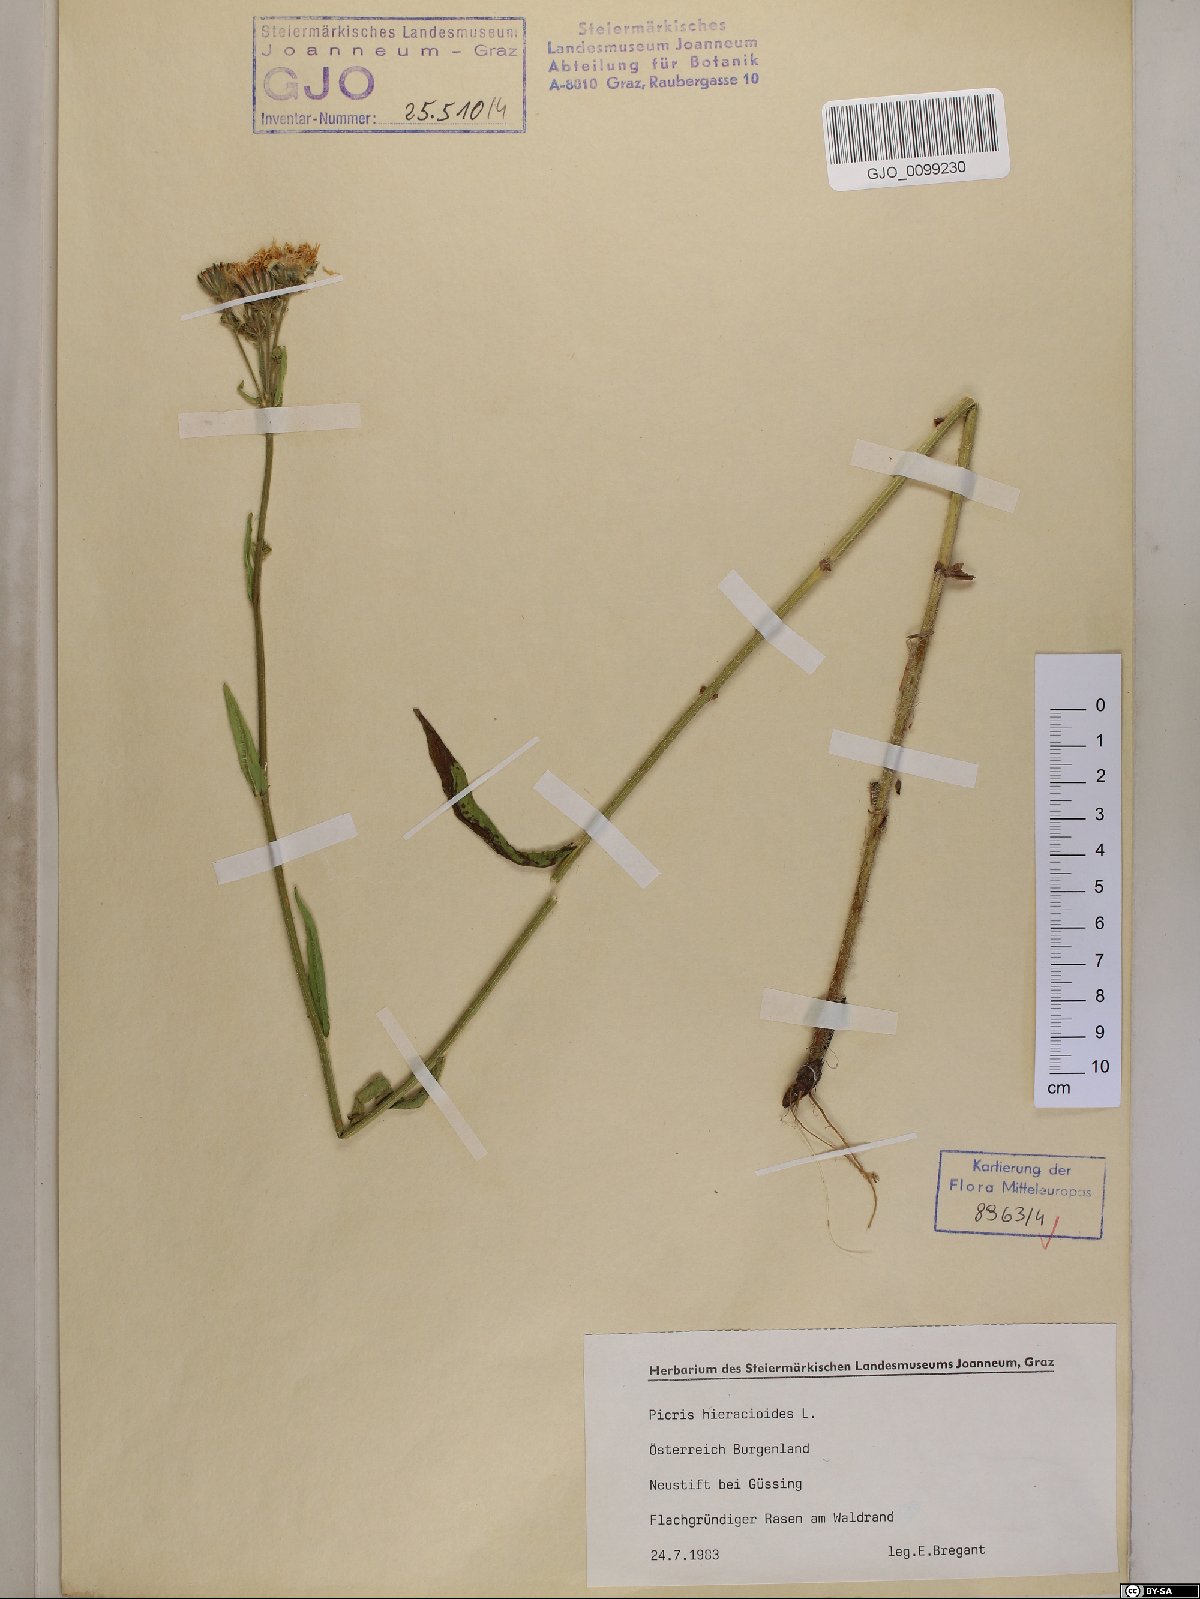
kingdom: Plantae
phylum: Tracheophyta
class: Magnoliopsida
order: Asterales
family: Asteraceae
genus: Picris
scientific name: Picris hieracioides
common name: Hawkweed oxtongue
